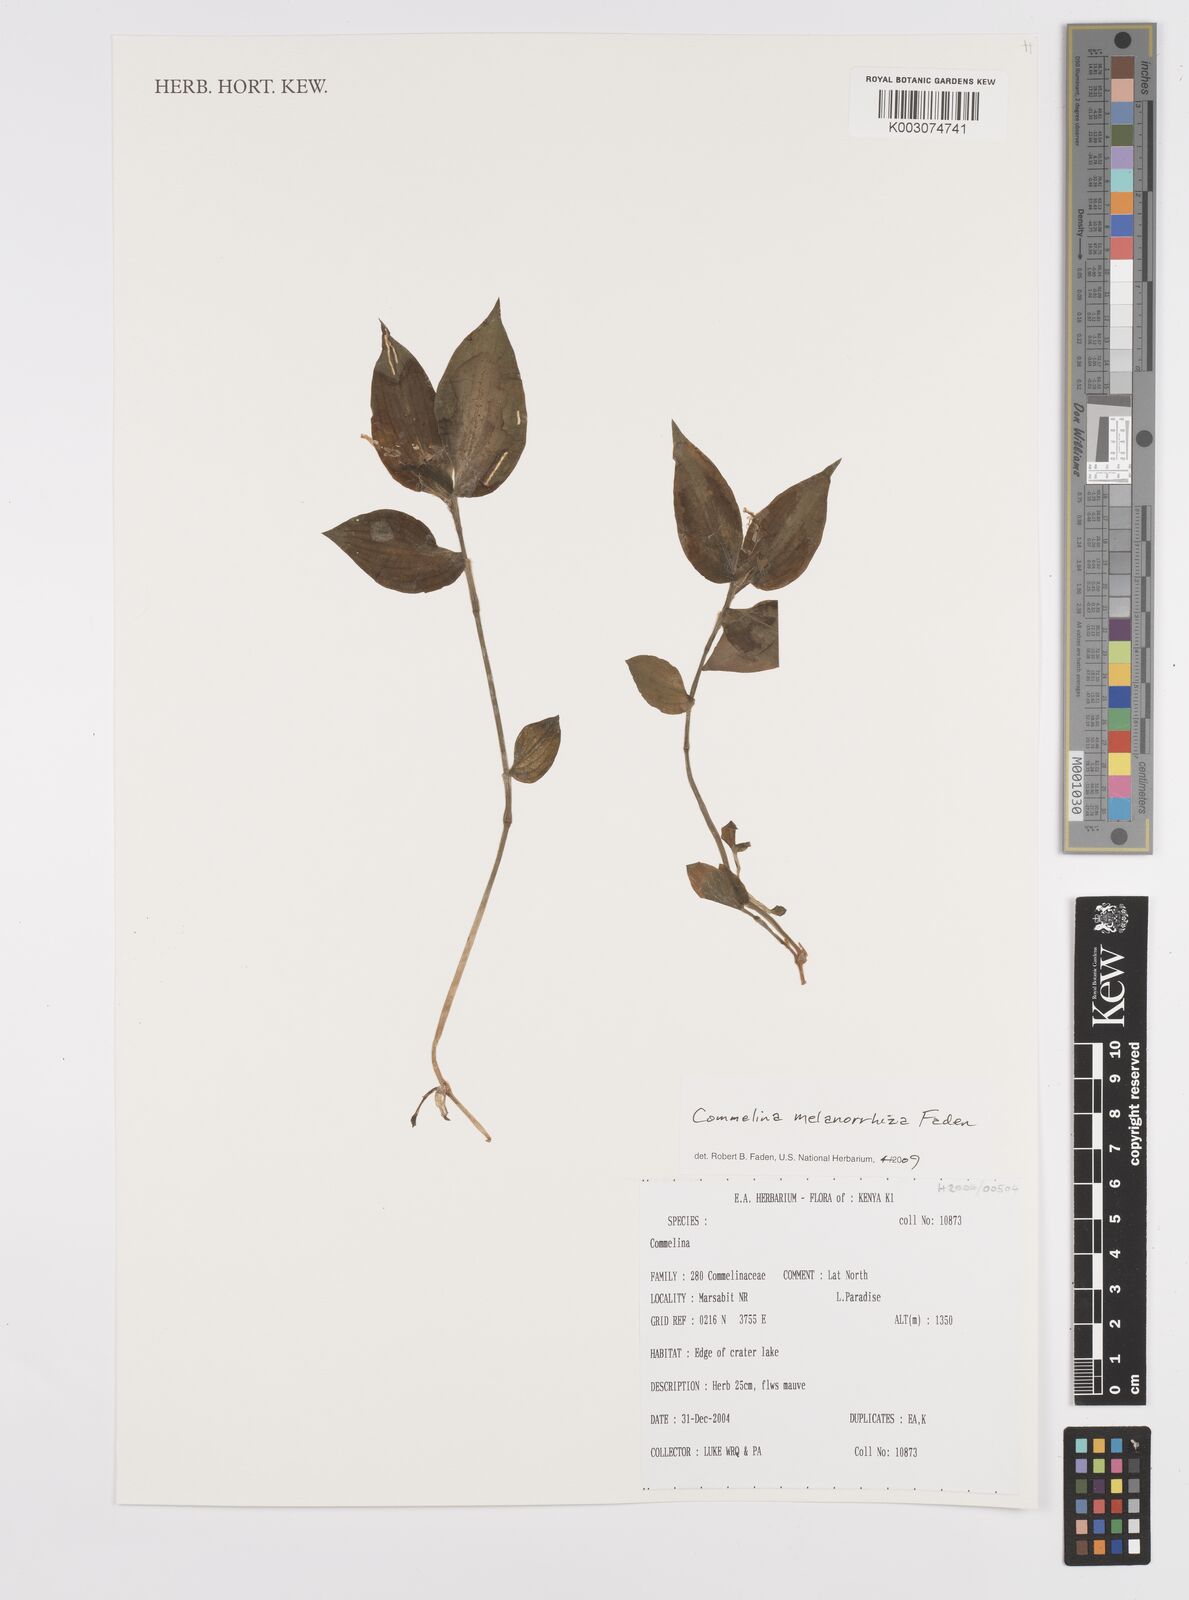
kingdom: Plantae
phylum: Tracheophyta
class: Liliopsida
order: Commelinales
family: Commelinaceae
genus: Commelina
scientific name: Commelina melanorrhiza
